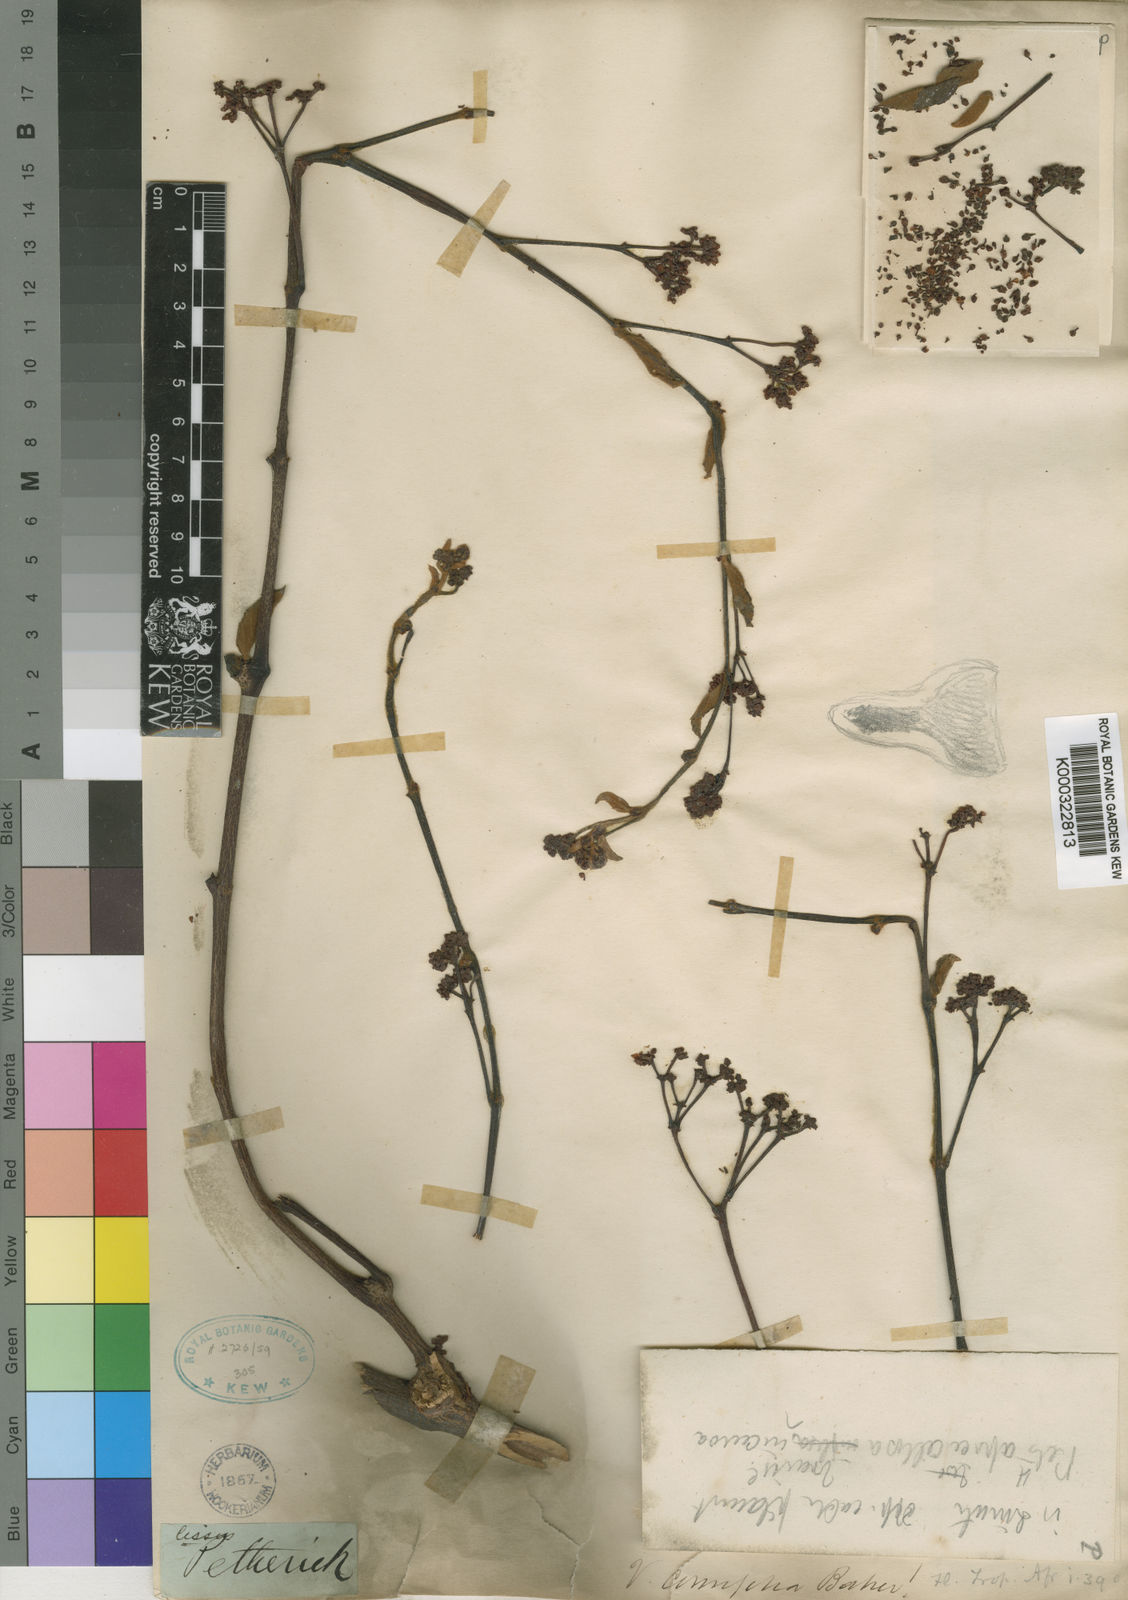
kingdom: Plantae
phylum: Tracheophyta
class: Magnoliopsida
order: Vitales
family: Vitaceae
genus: Cissus
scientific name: Cissus cornifolia
